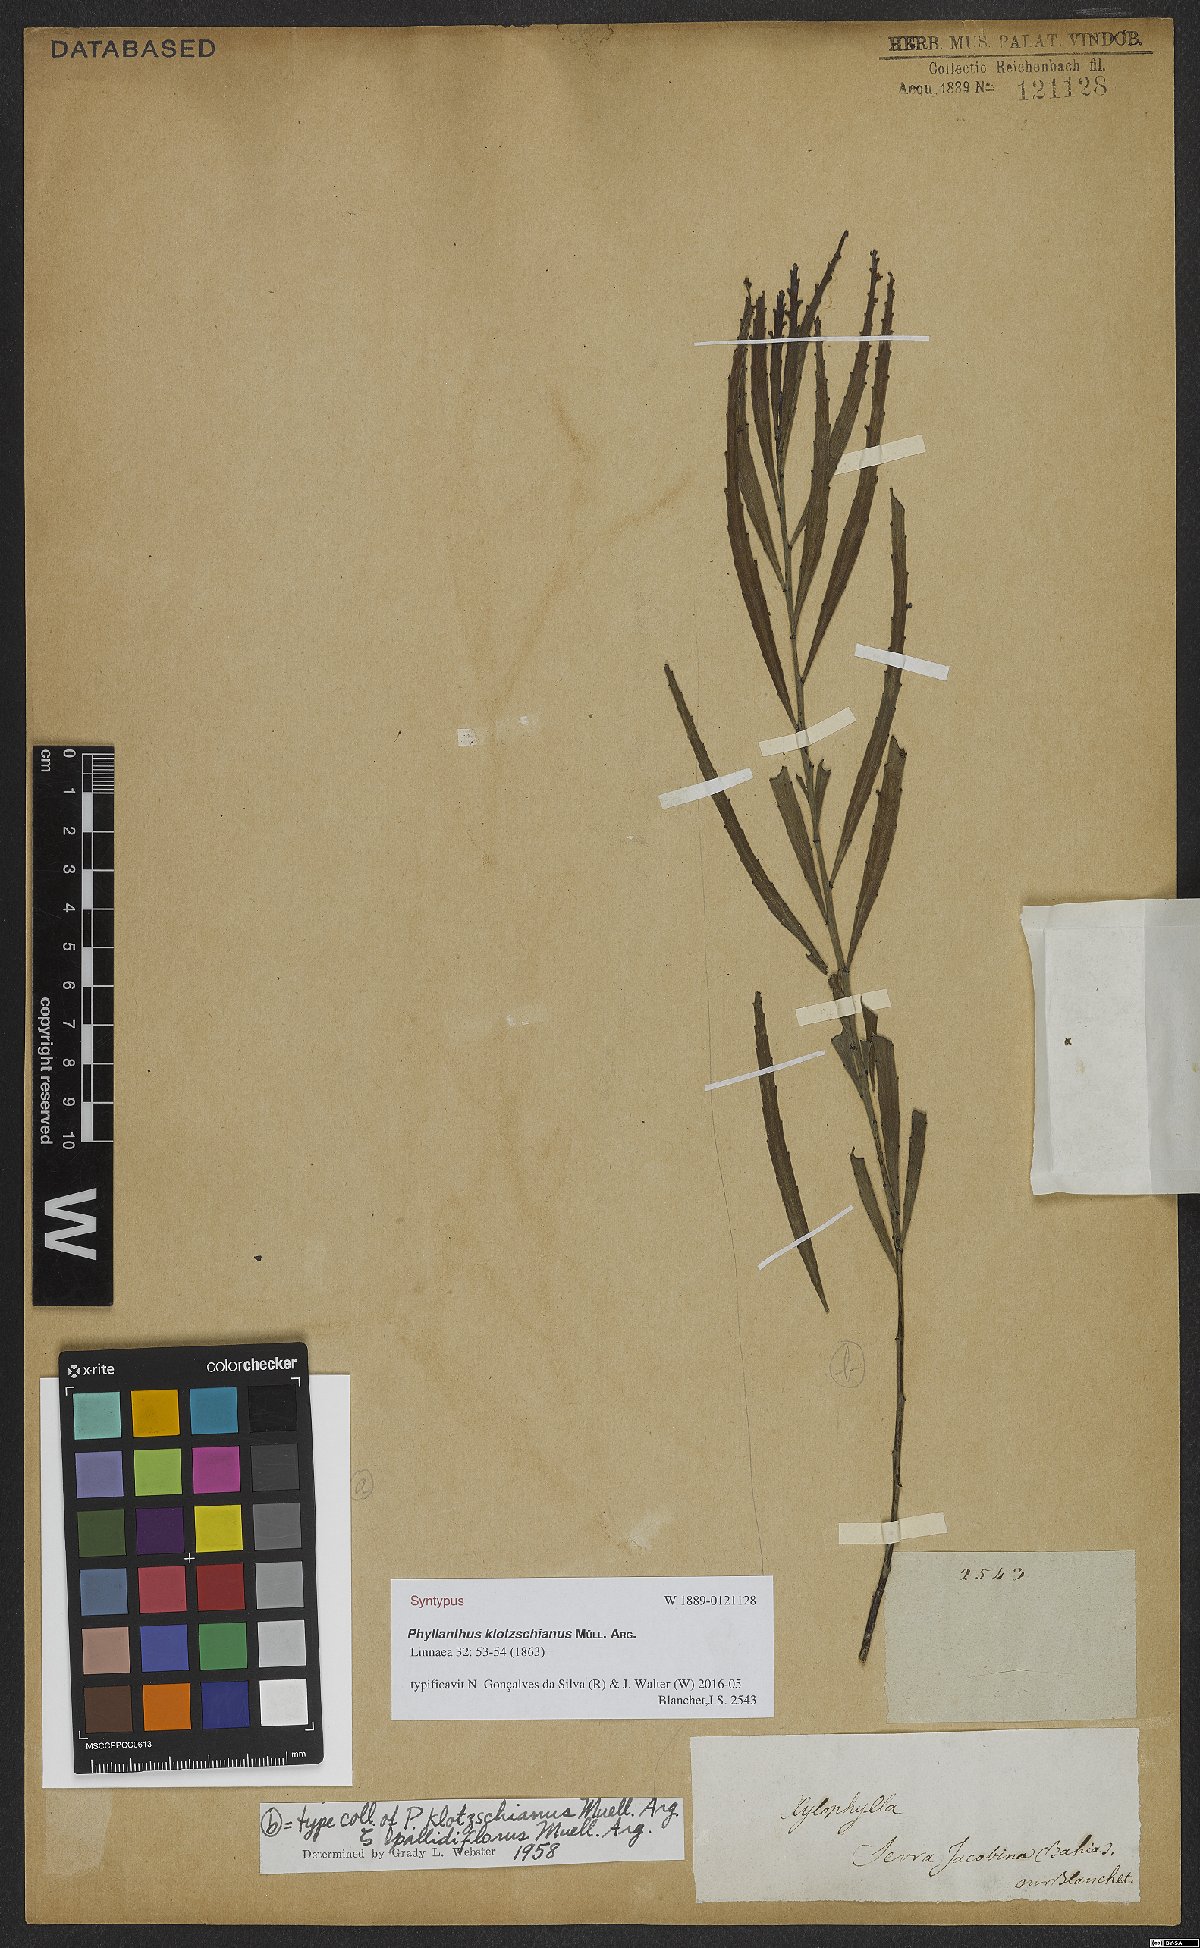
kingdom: Plantae
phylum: Tracheophyta
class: Magnoliopsida
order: Malpighiales
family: Phyllanthaceae
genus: Phyllanthus
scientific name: Phyllanthus robustus
